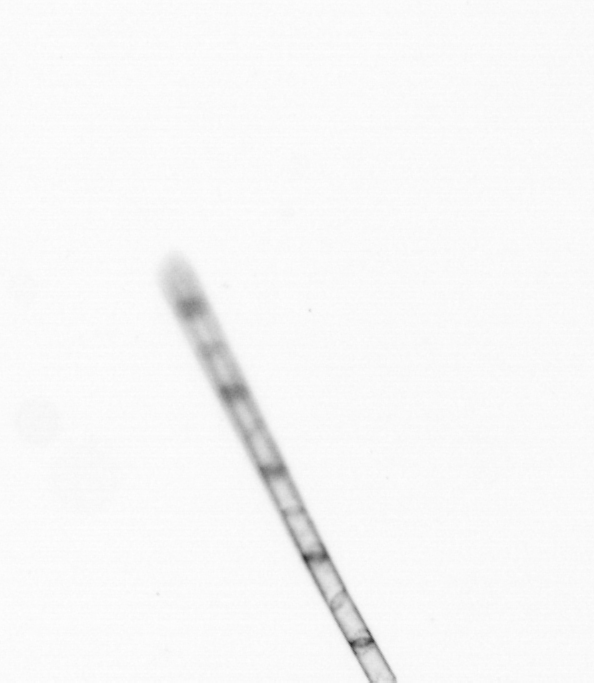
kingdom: Chromista
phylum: Ochrophyta
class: Bacillariophyceae
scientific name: Bacillariophyceae
